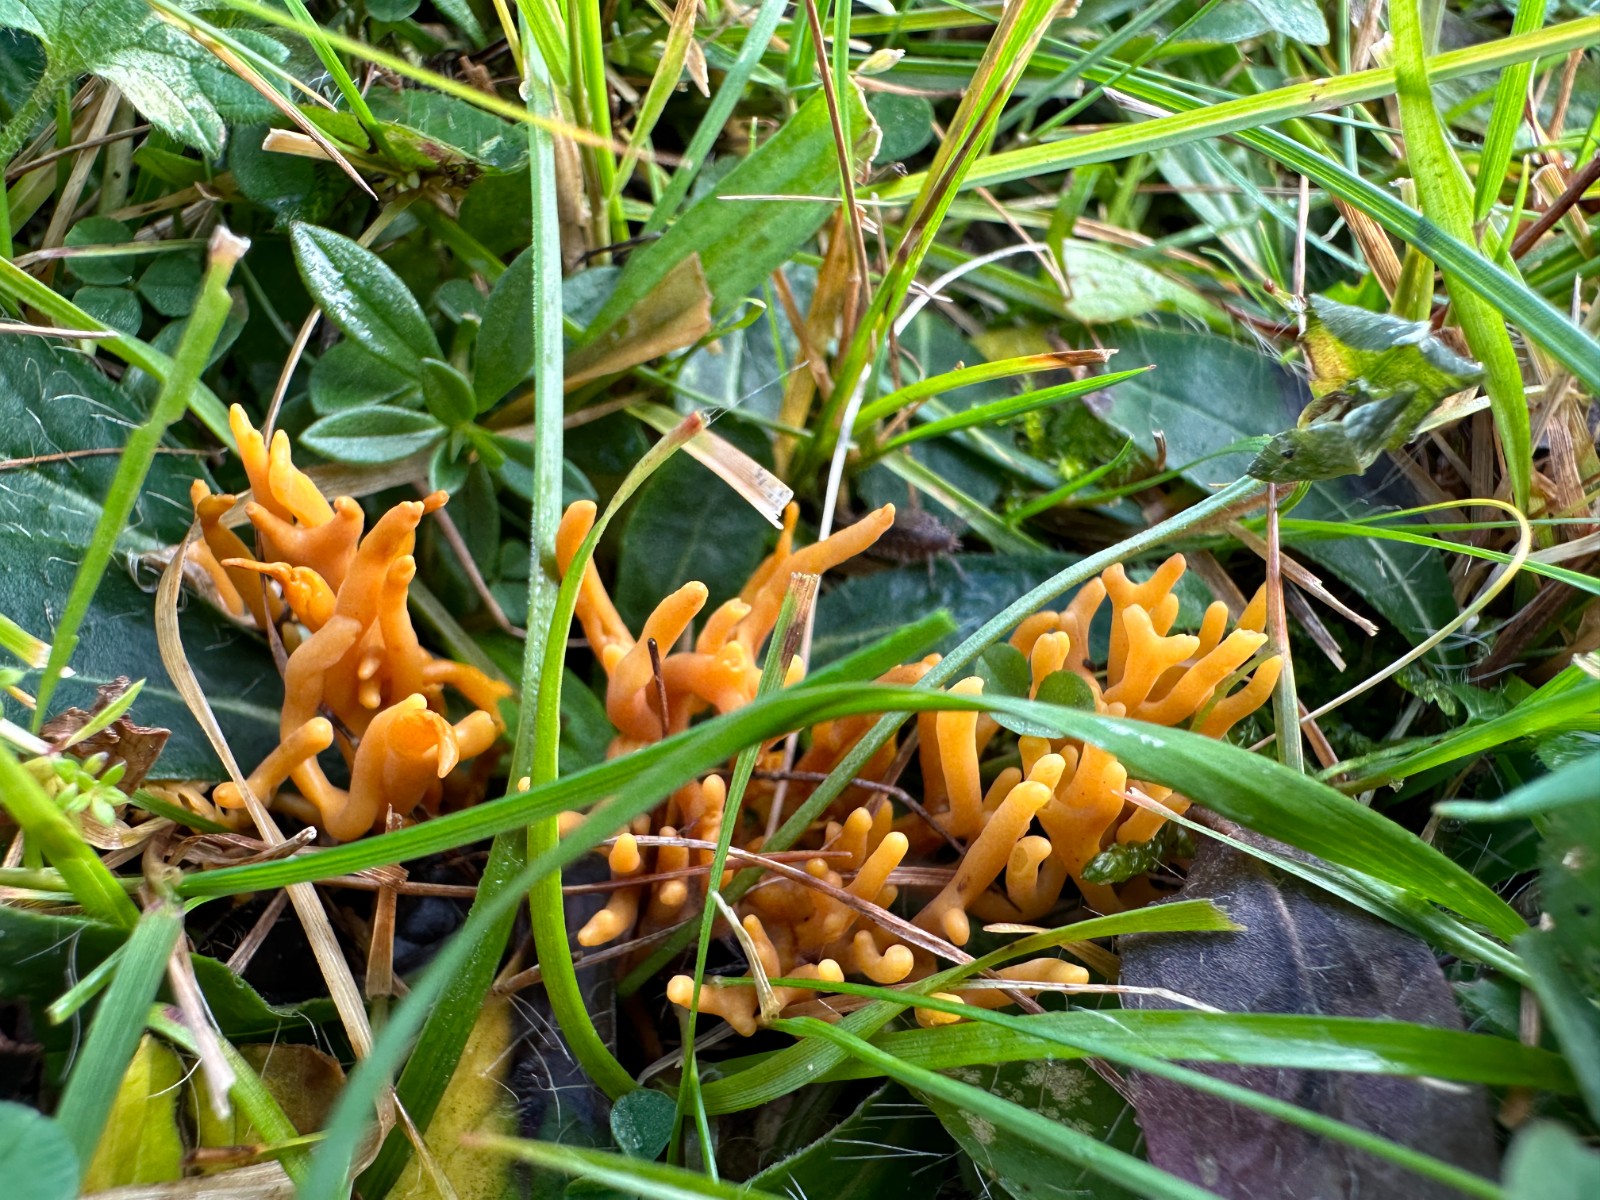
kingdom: Fungi
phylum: Basidiomycota
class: Agaricomycetes
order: Agaricales
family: Clavariaceae
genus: Clavulinopsis
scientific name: Clavulinopsis corniculata
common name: eng-køllesvamp
